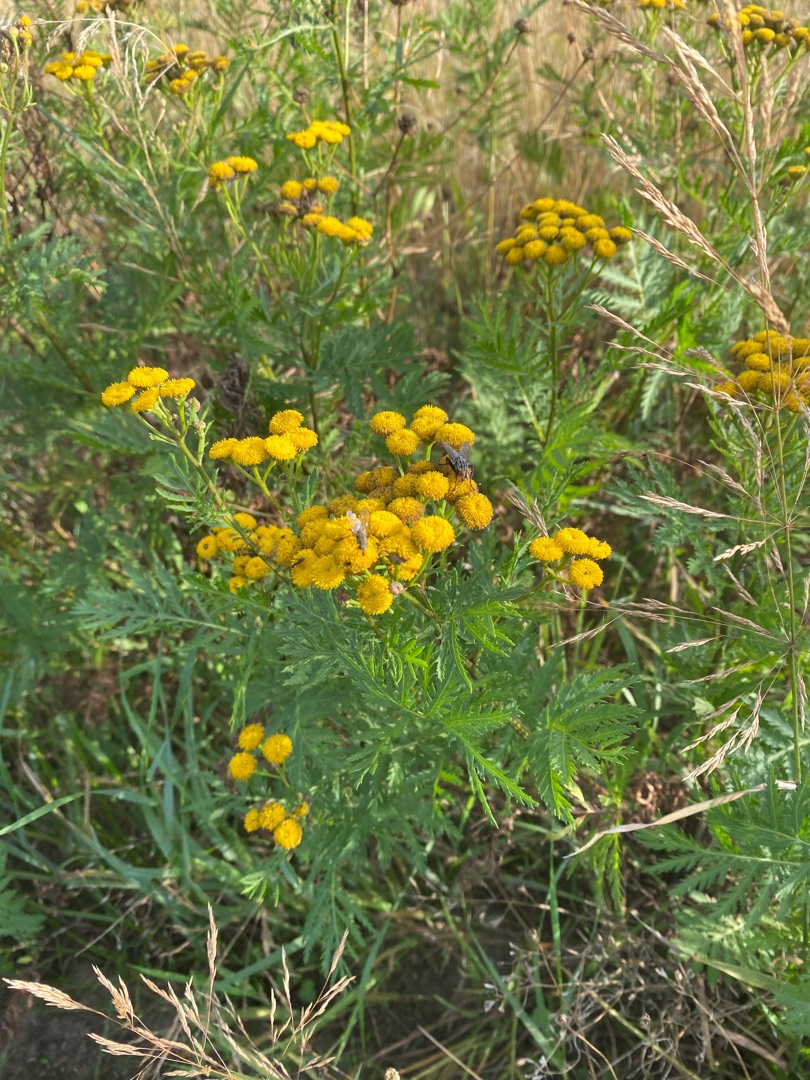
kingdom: Plantae
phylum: Tracheophyta
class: Magnoliopsida
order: Asterales
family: Asteraceae
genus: Tanacetum
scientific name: Tanacetum vulgare
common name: Rejnfan
